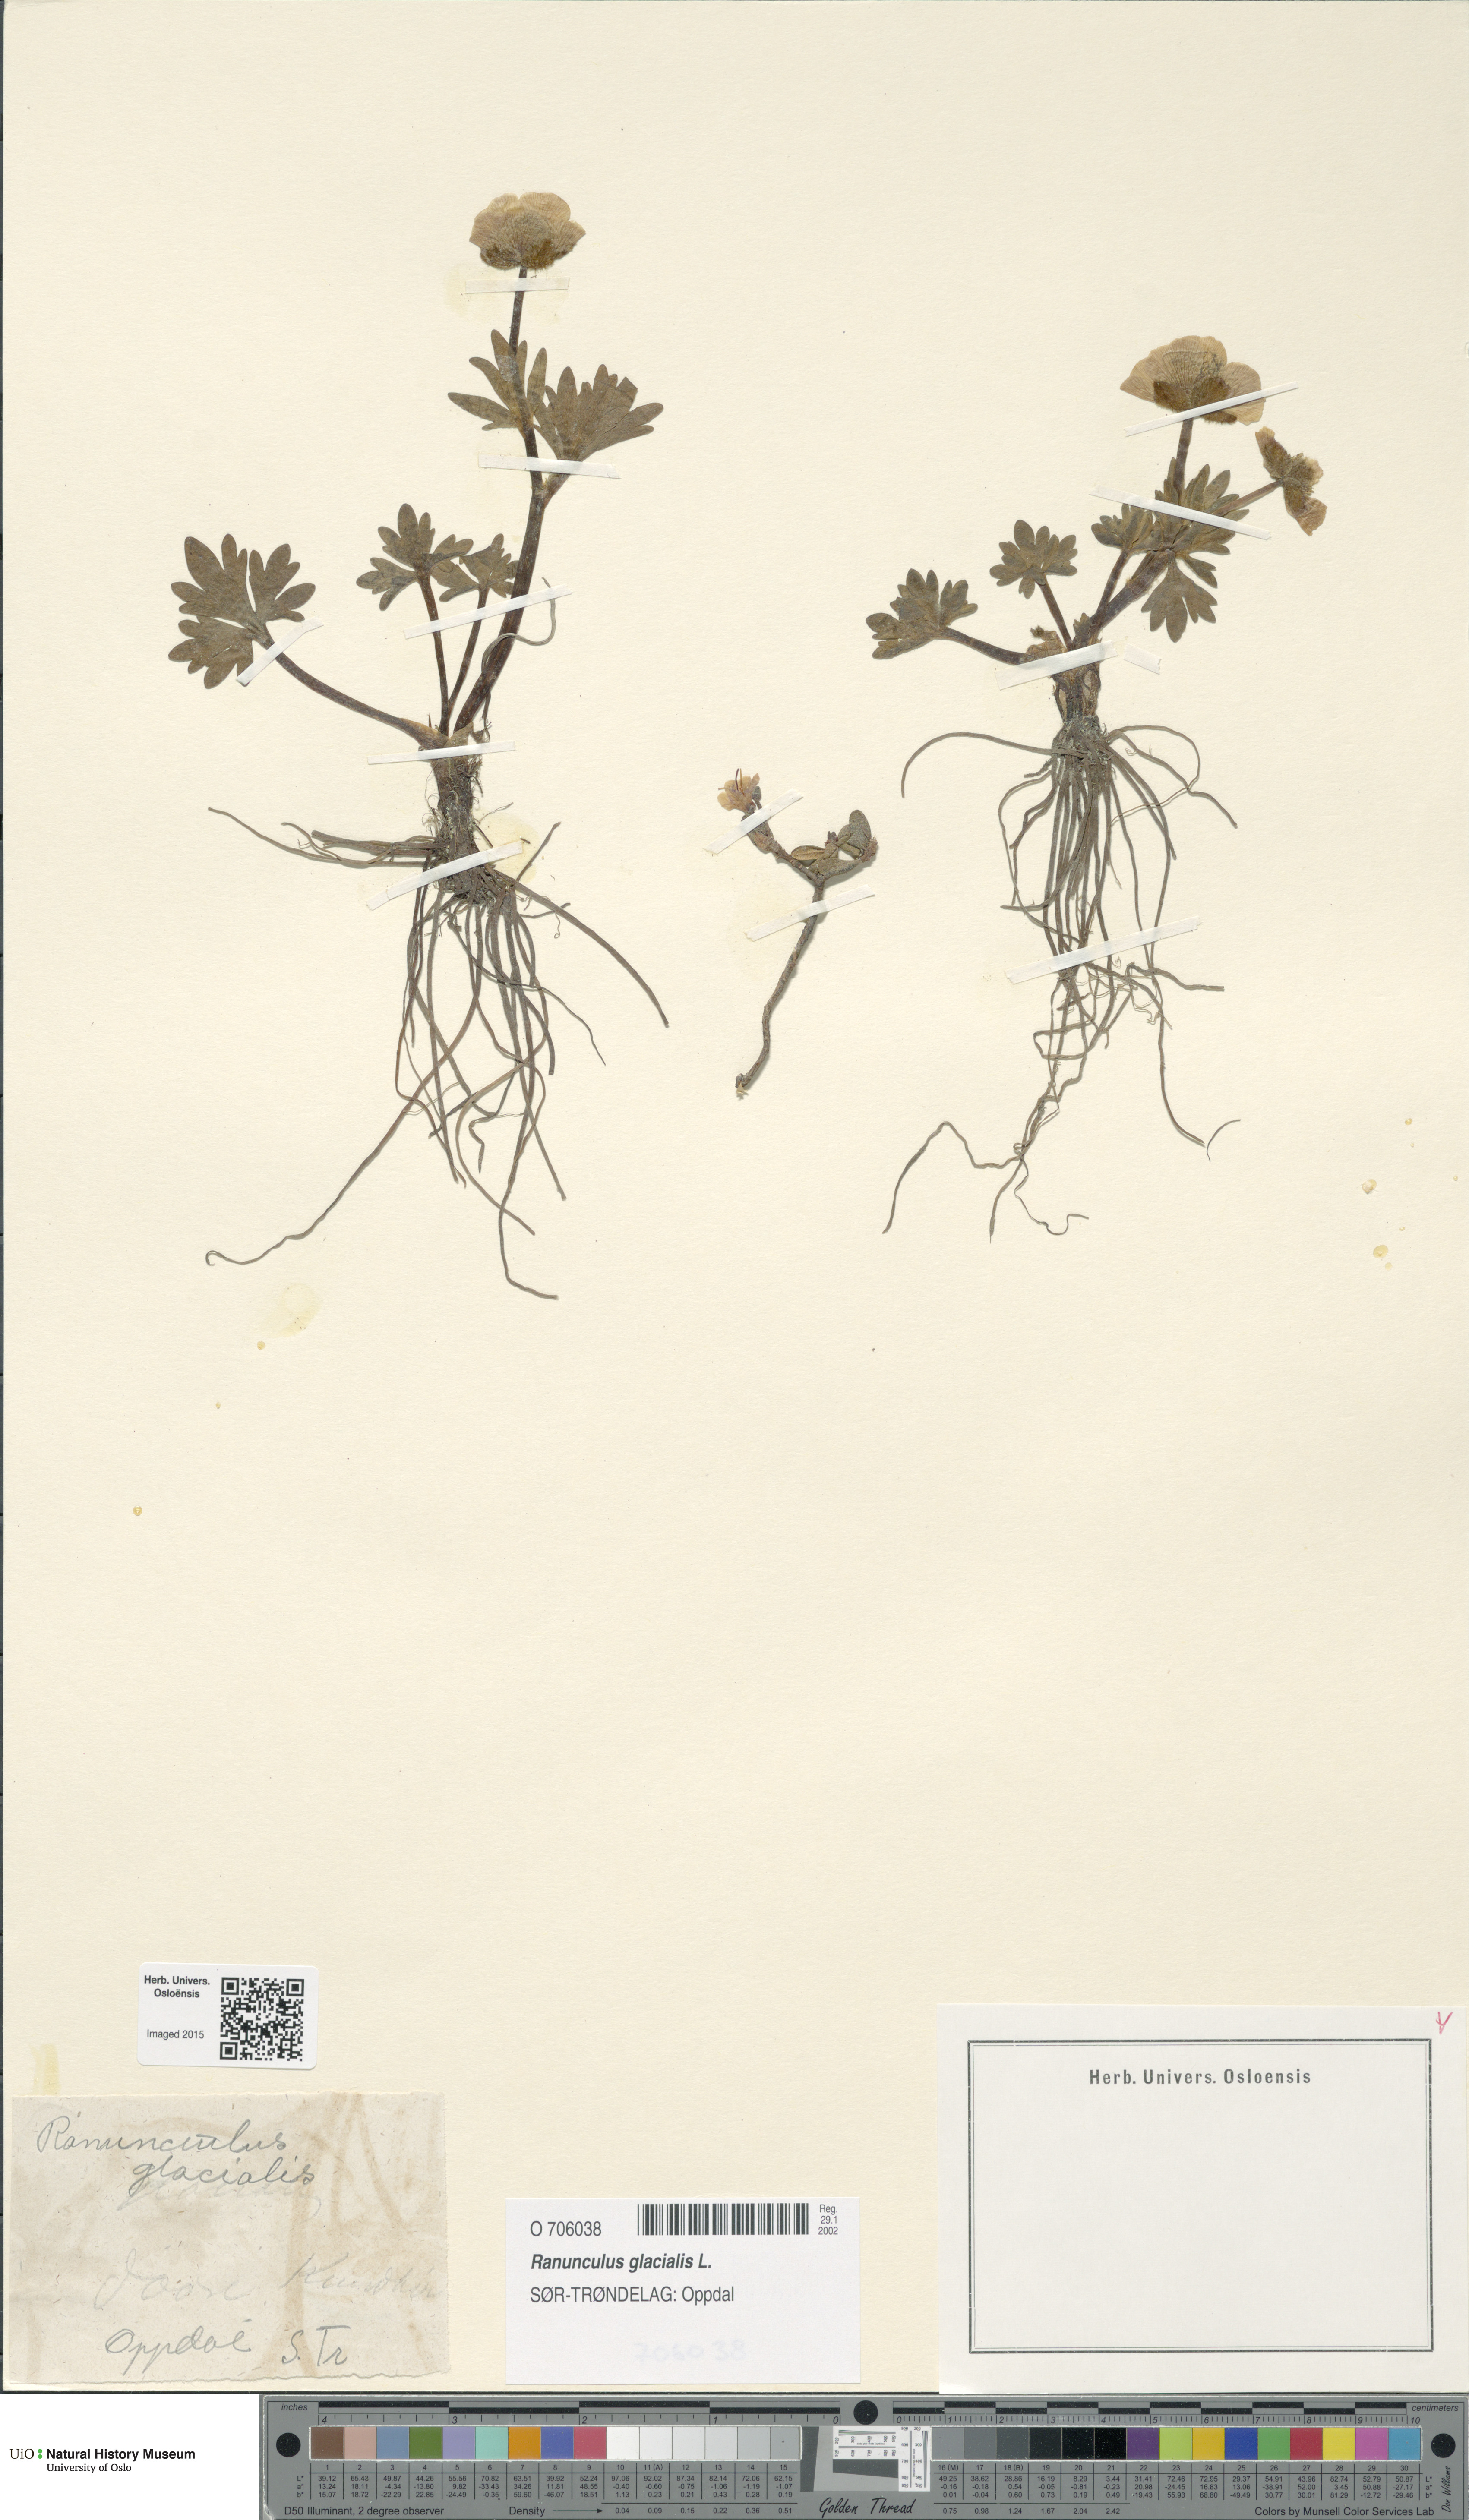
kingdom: Plantae
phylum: Tracheophyta
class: Magnoliopsida
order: Ranunculales
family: Ranunculaceae
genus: Ranunculus
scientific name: Ranunculus glacialis
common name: Glacier buttercup
